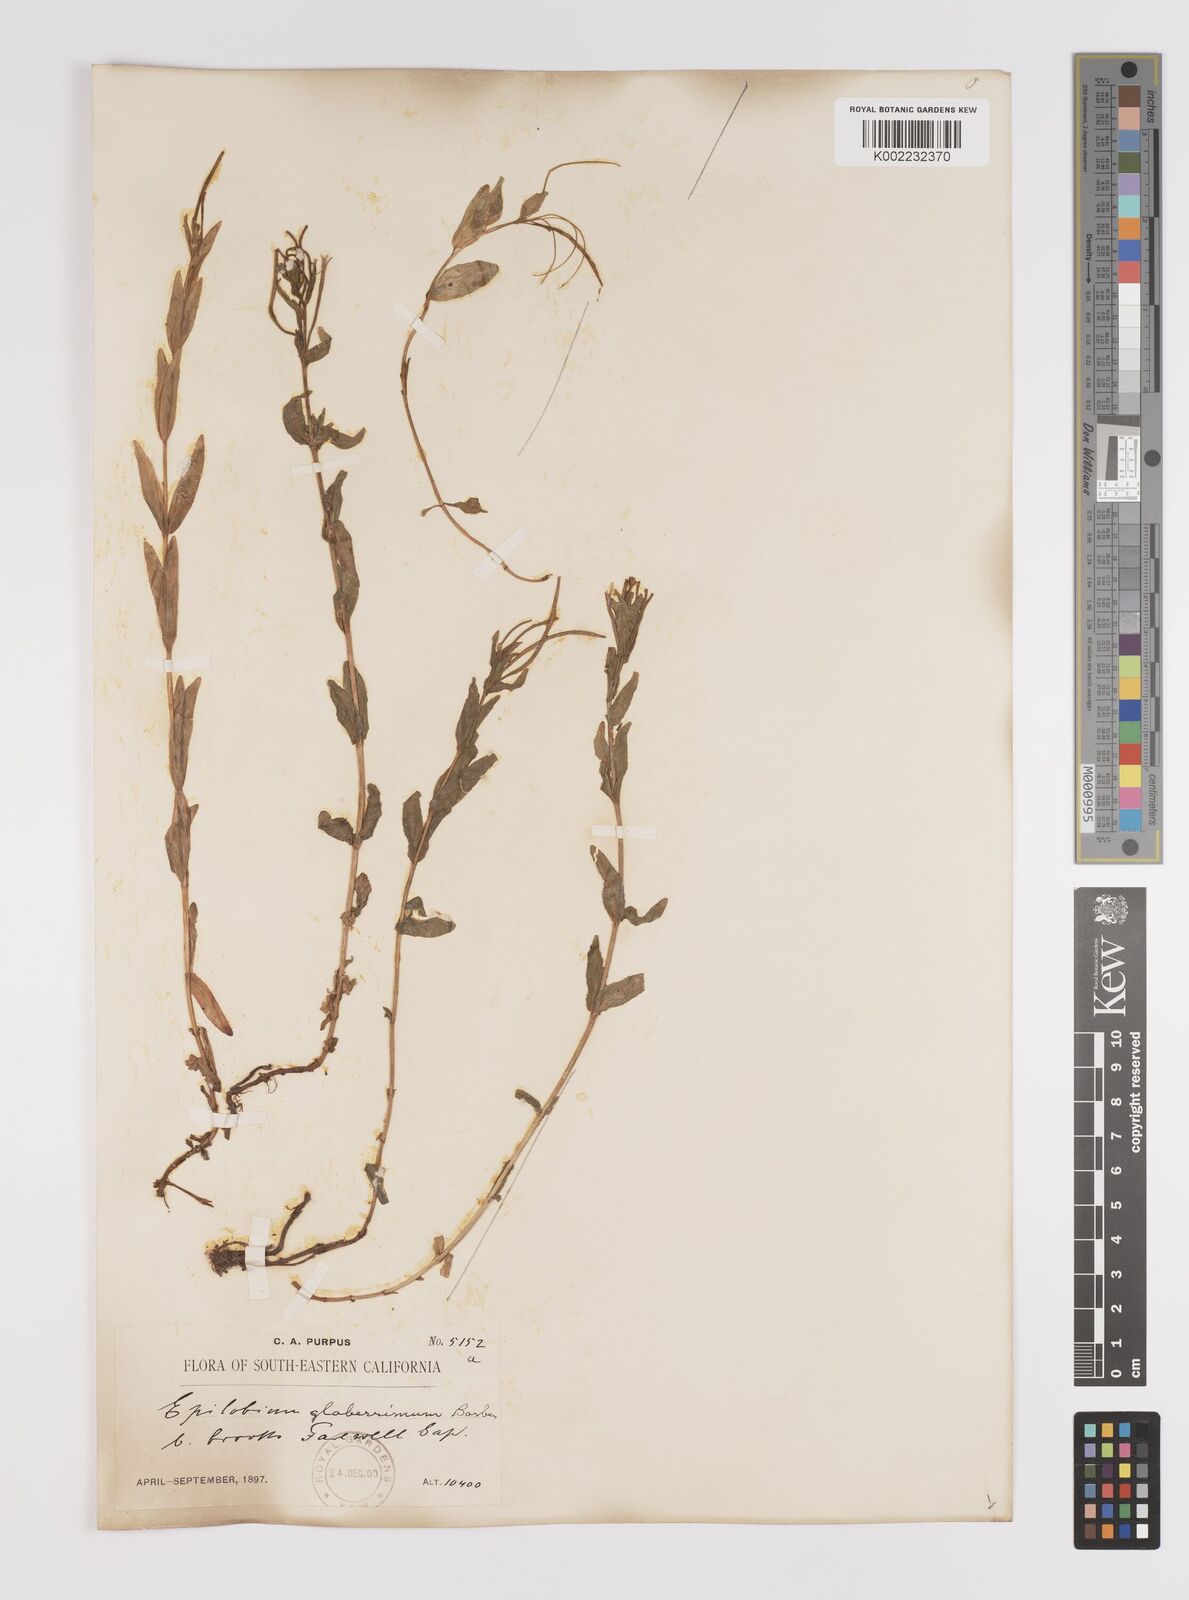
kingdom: Plantae
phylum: Tracheophyta
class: Magnoliopsida
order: Myrtales
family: Onagraceae
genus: Epilobium
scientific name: Epilobium glaberrimum
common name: Glaucous willowherb
